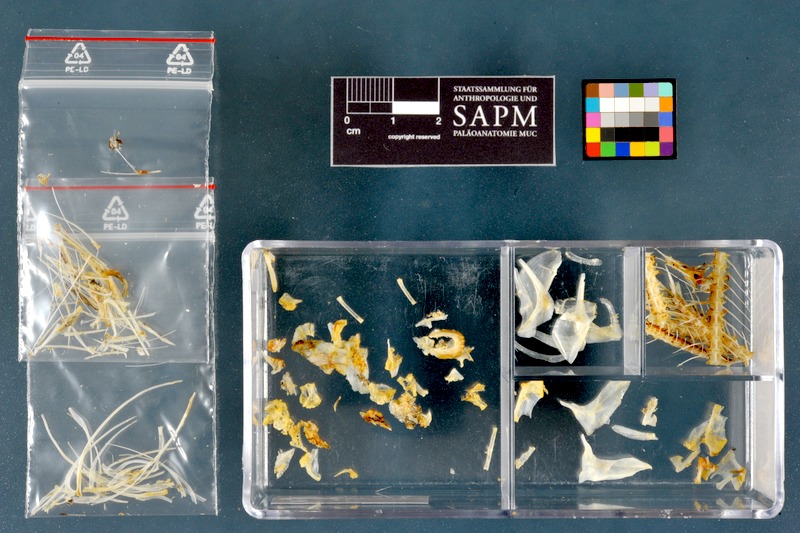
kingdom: Animalia
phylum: Chordata
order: Characiformes
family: Alestidae
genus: Alestes
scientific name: Alestes dentex
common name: Characin
